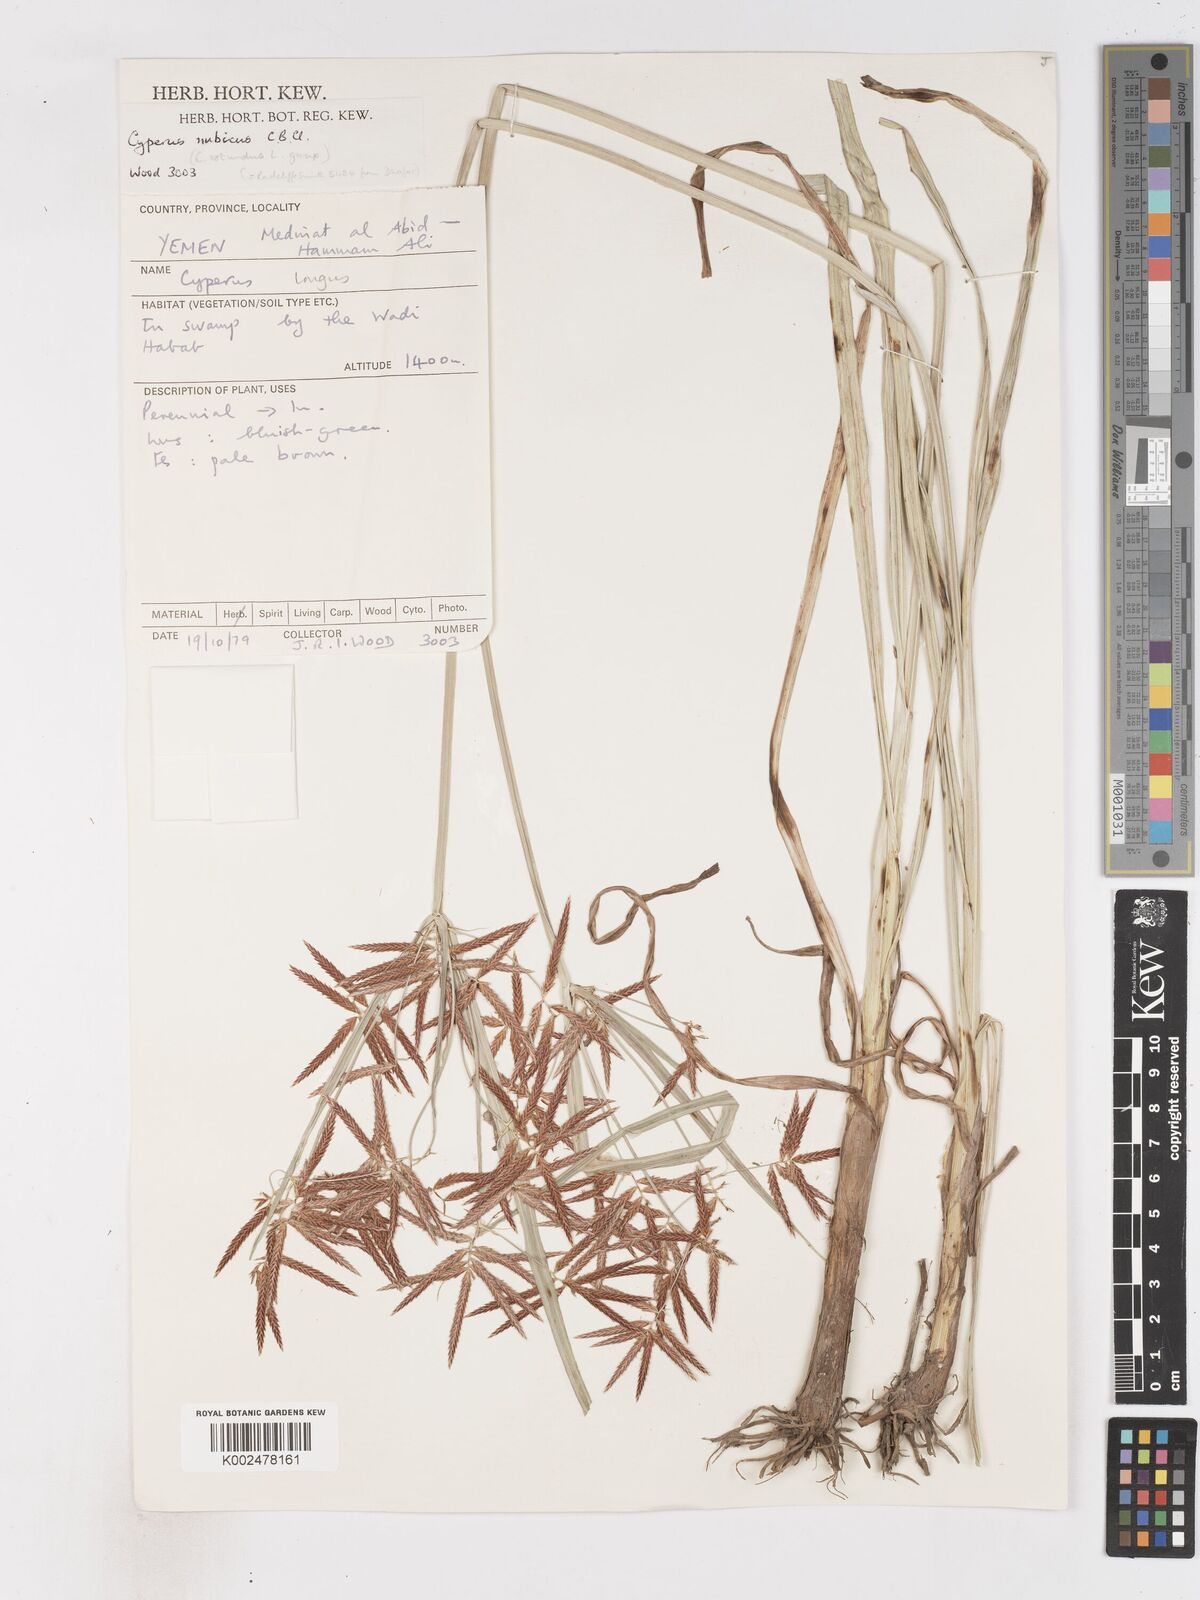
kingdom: Plantae
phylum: Tracheophyta
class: Liliopsida
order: Poales
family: Cyperaceae
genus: Cyperus
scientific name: Cyperus nubicus
